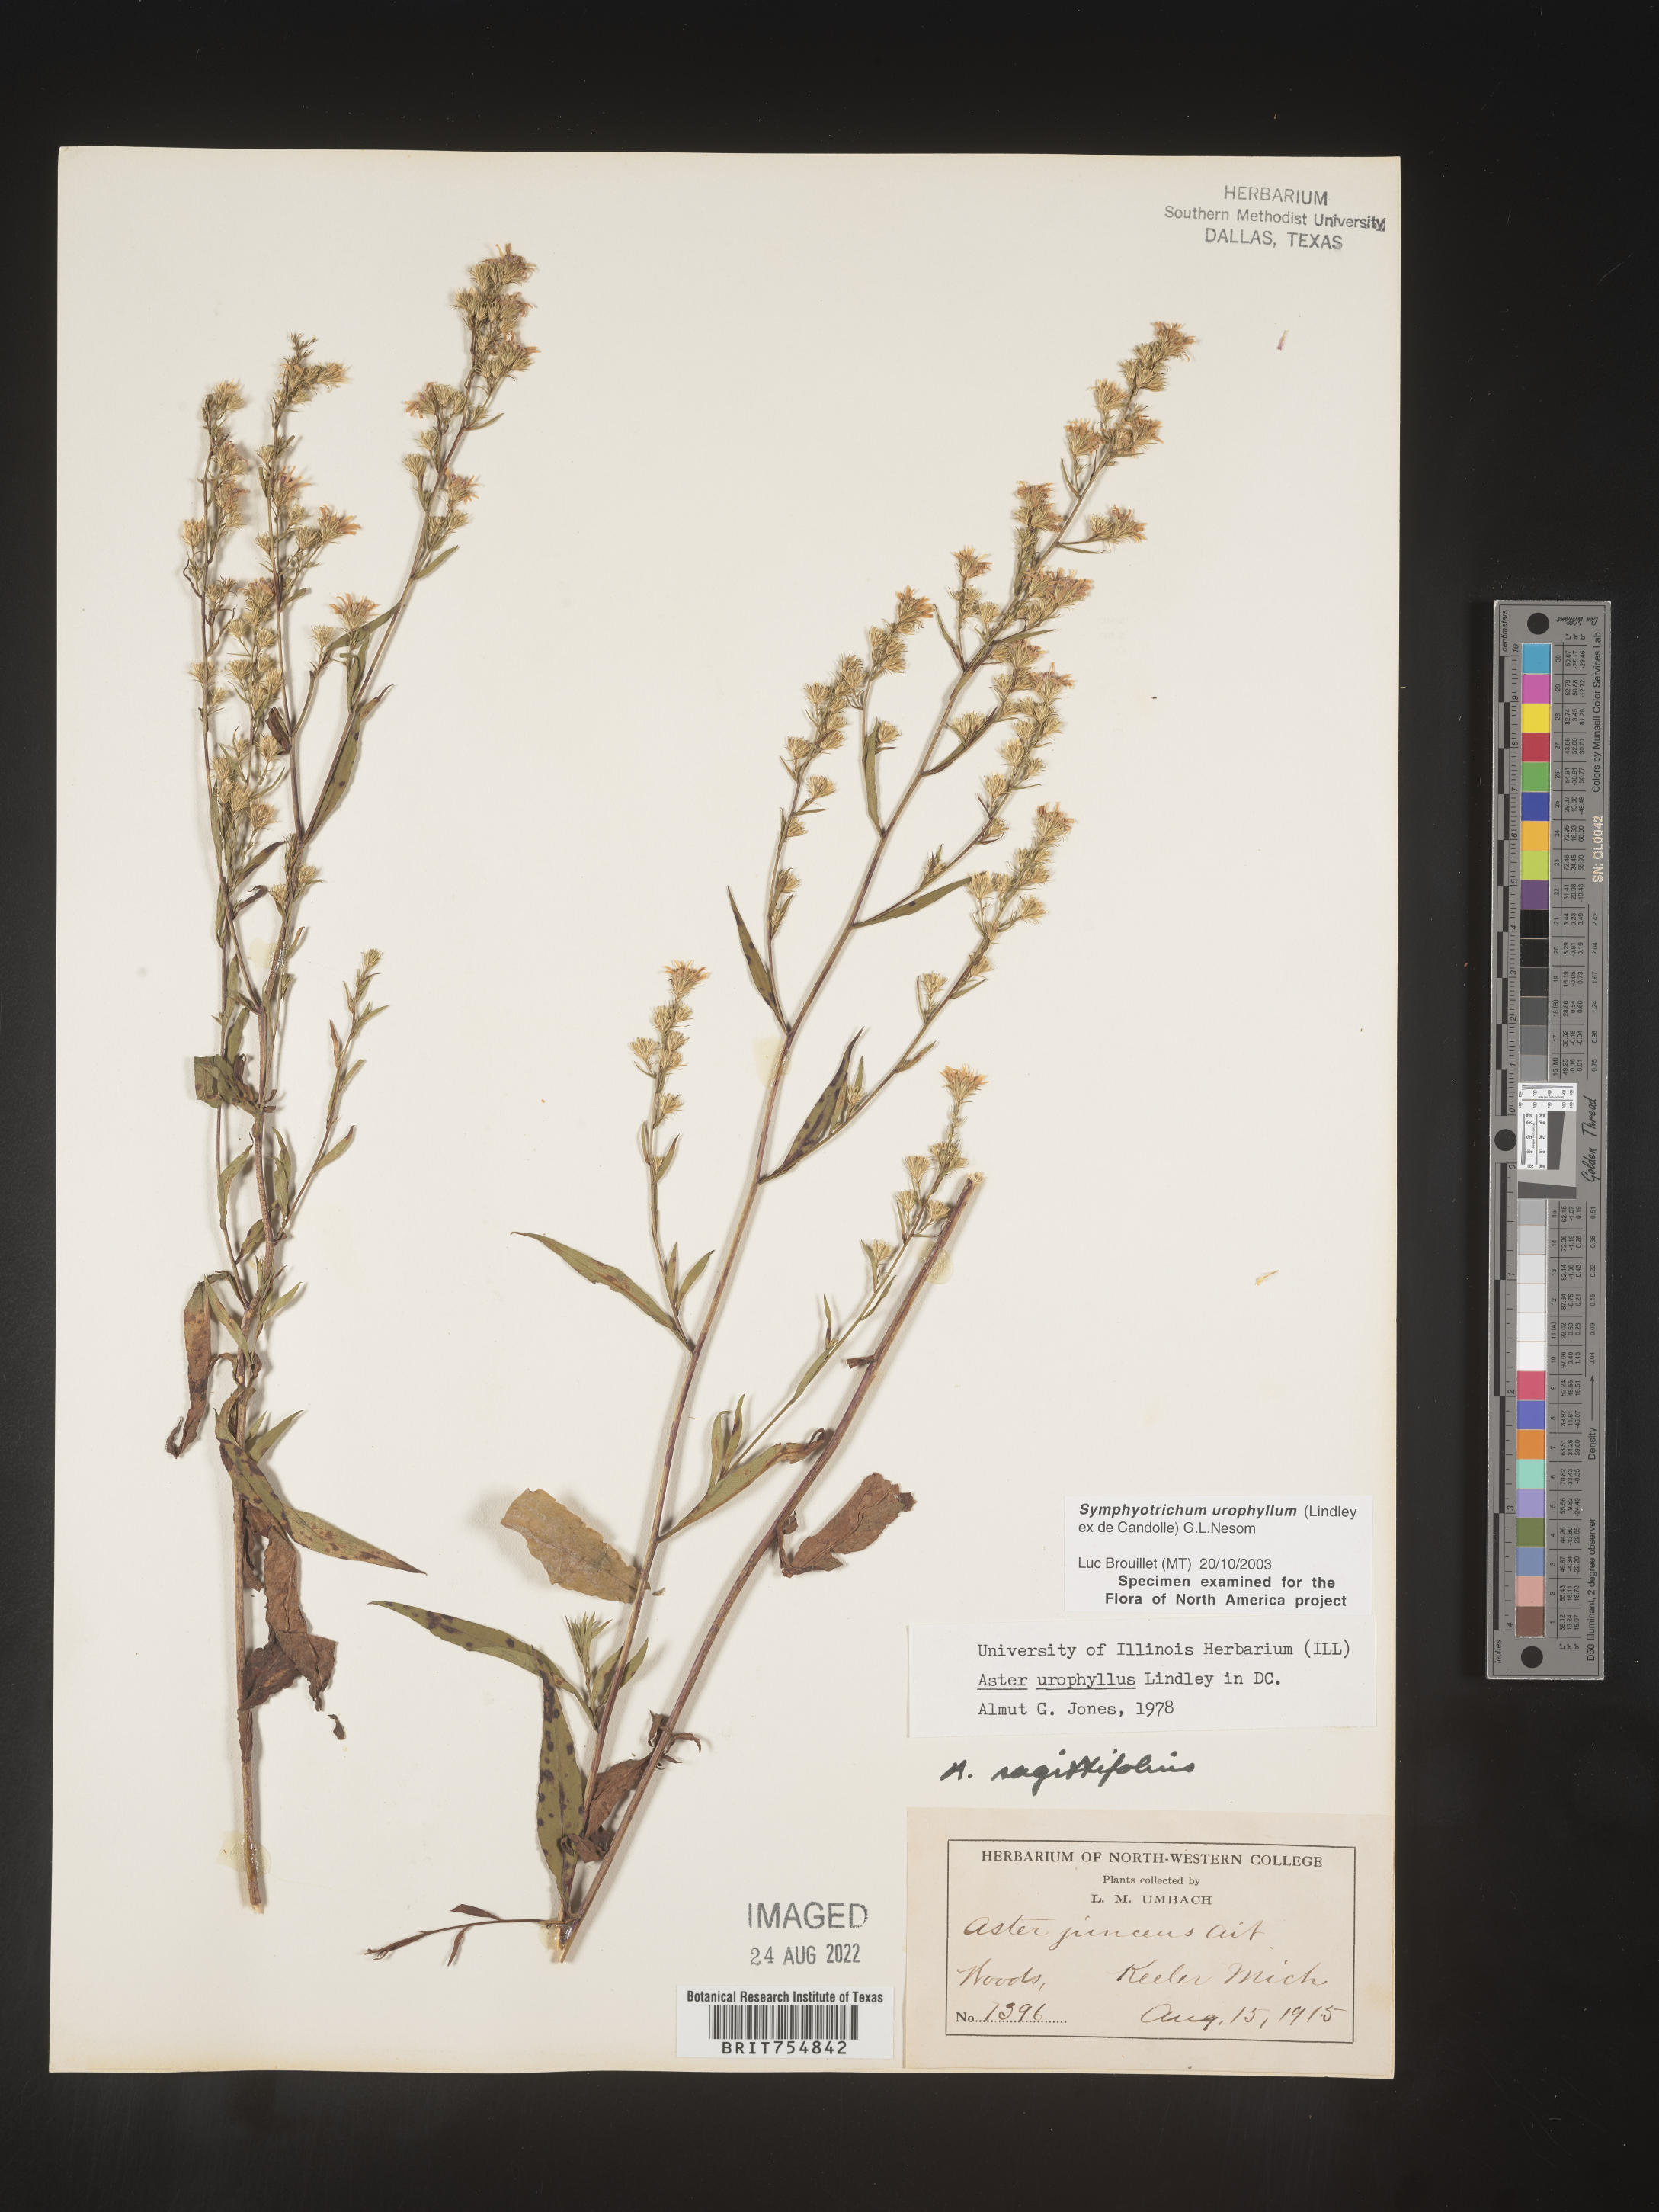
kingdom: Plantae
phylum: Tracheophyta
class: Magnoliopsida
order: Asterales
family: Asteraceae
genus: Symphyotrichum
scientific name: Symphyotrichum urophyllum
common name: Arrow-leaved aster
